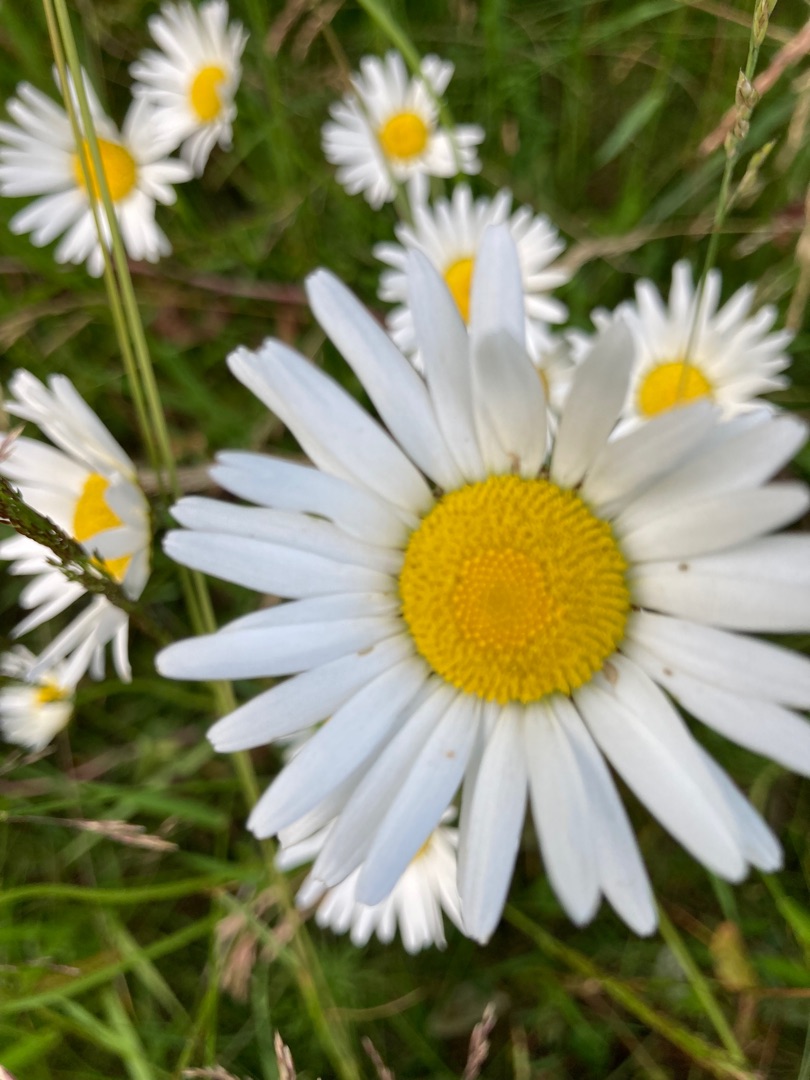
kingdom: Plantae
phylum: Tracheophyta
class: Magnoliopsida
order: Asterales
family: Asteraceae
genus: Leucanthemum
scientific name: Leucanthemum vulgare
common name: Hvid okseøje
